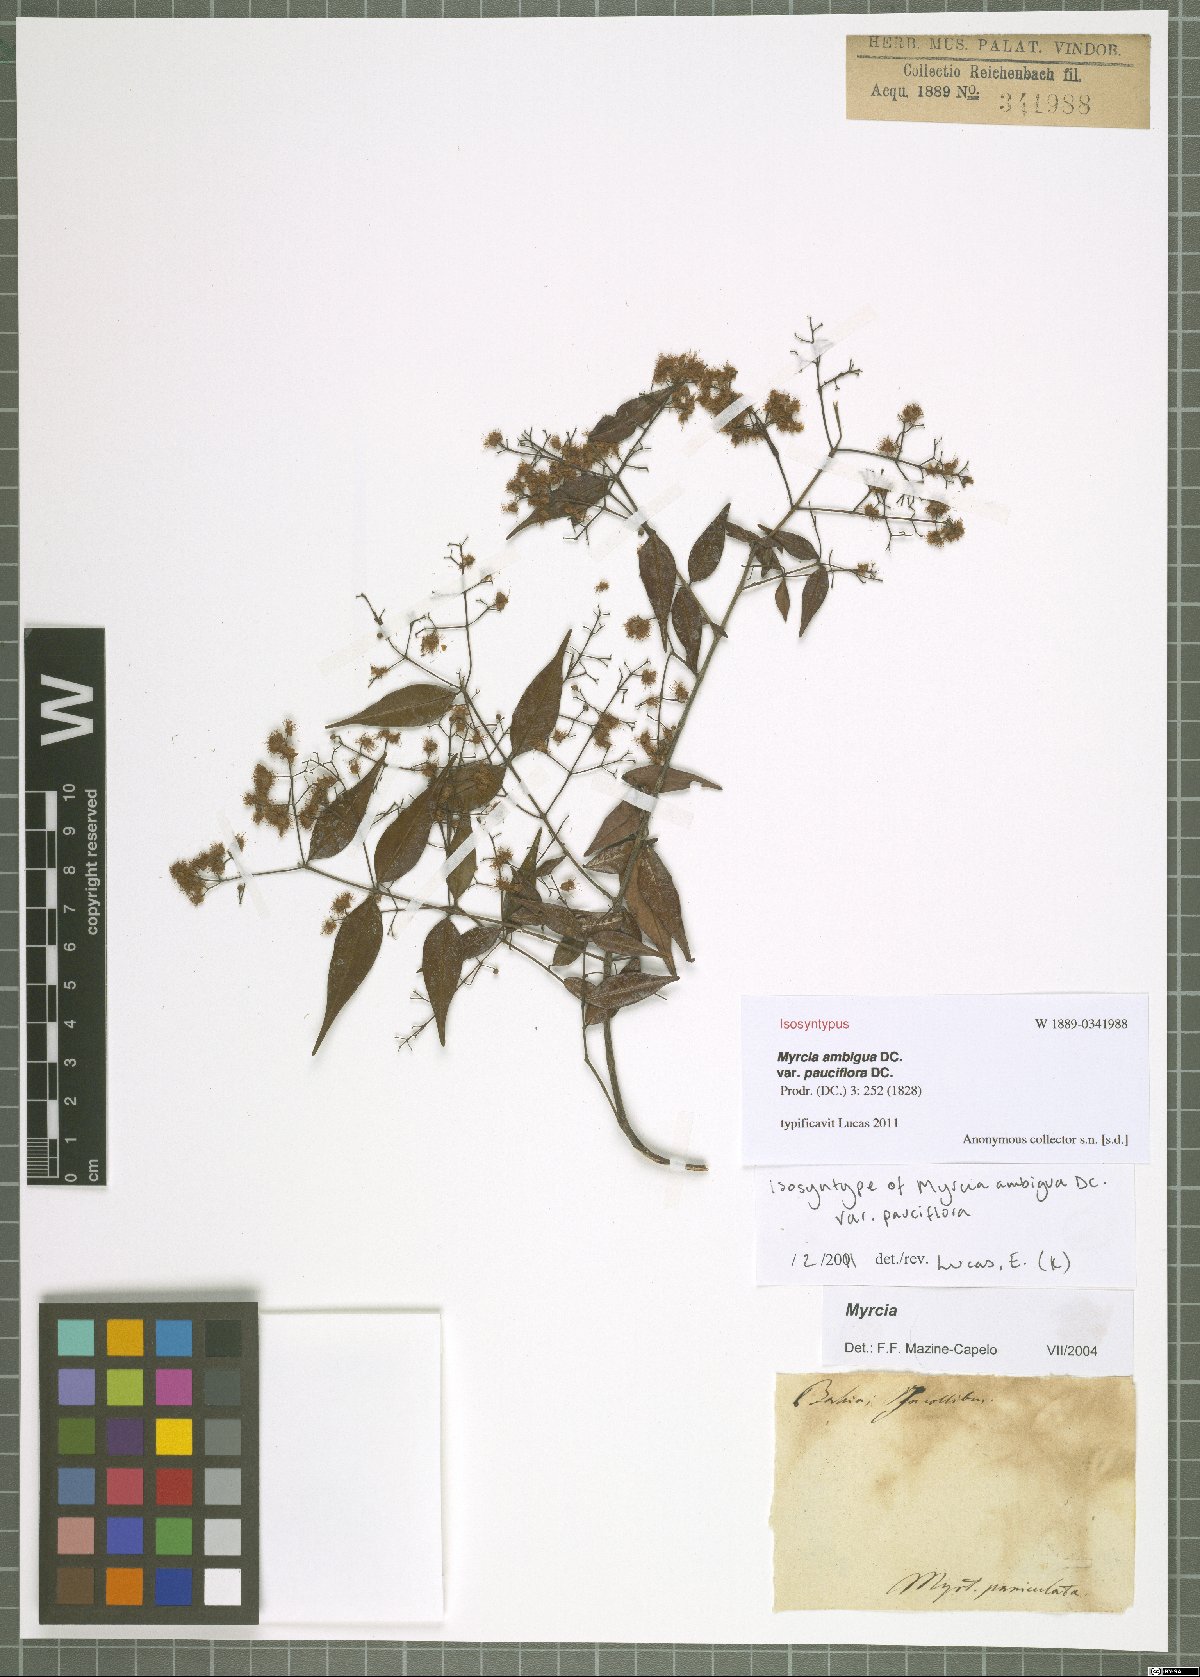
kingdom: Plantae
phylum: Tracheophyta
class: Magnoliopsida
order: Myrtales
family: Myrtaceae
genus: Myrcia
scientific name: Myrcia sylvatica
